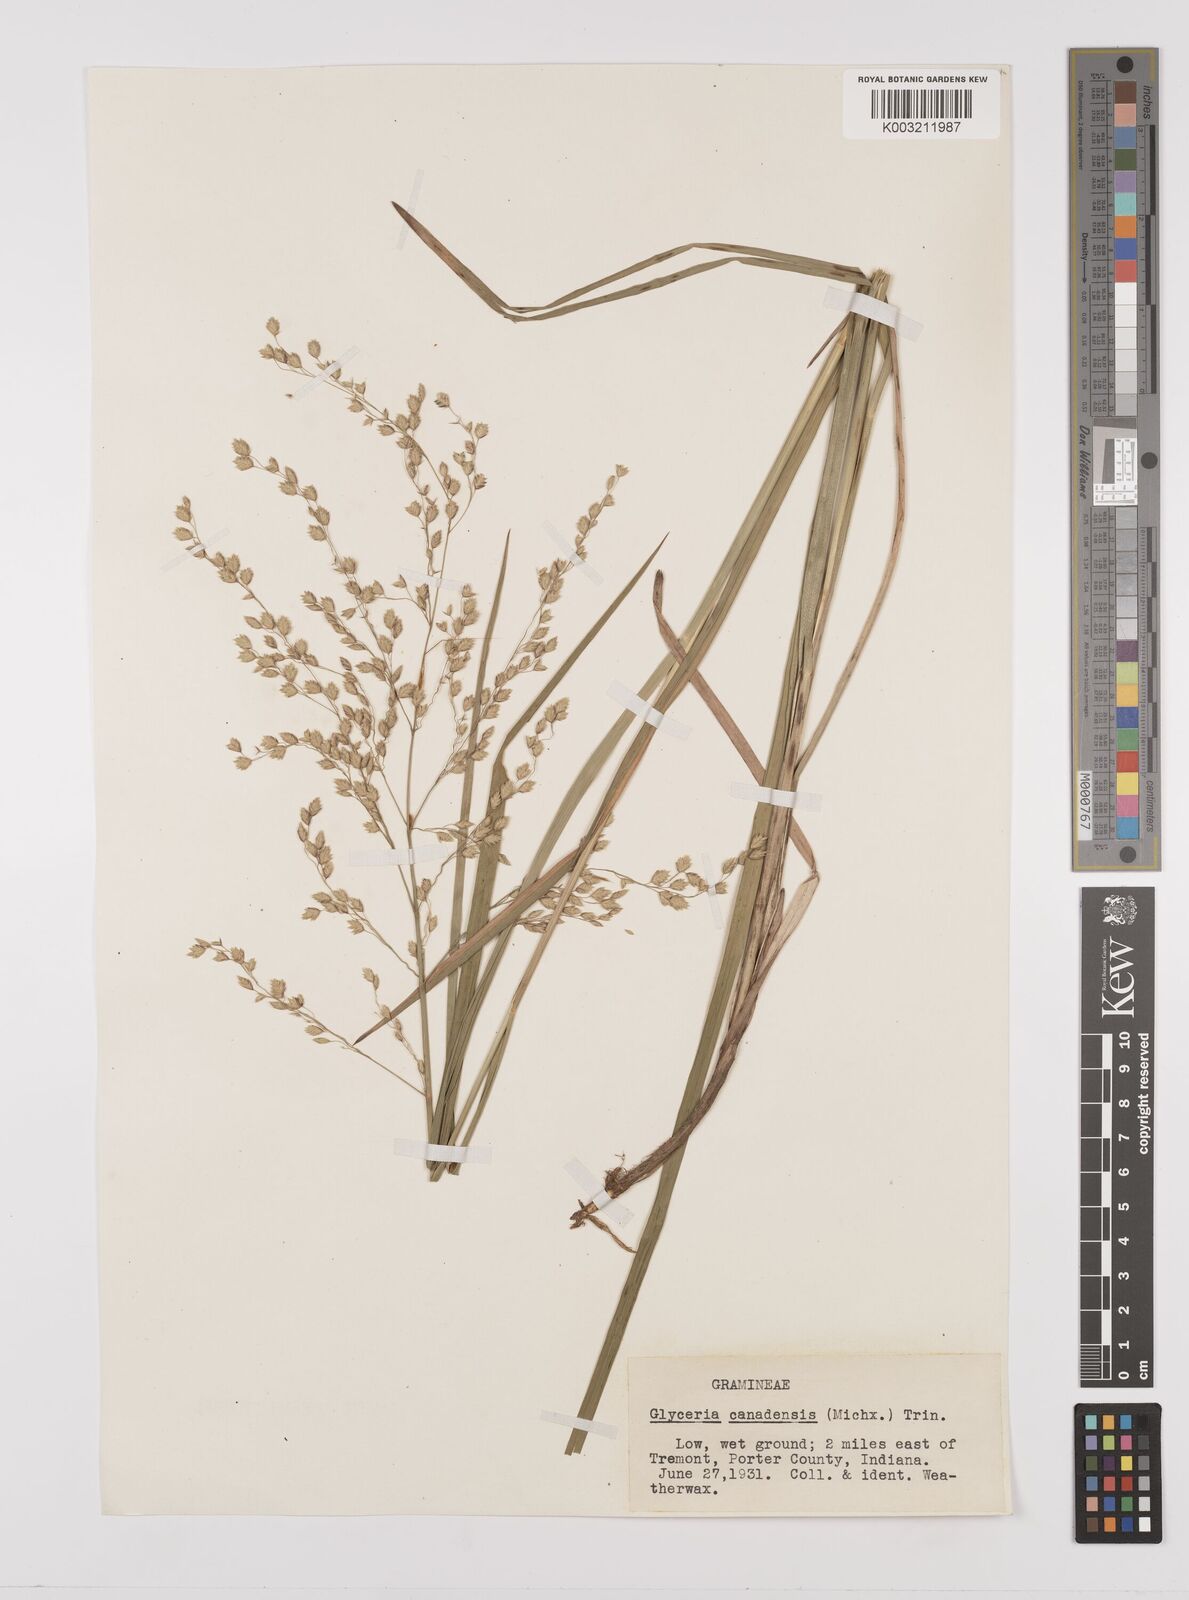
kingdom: Plantae
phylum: Tracheophyta
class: Liliopsida
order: Poales
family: Poaceae
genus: Glyceria
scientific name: Glyceria canadensis
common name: Canada mannagrass
